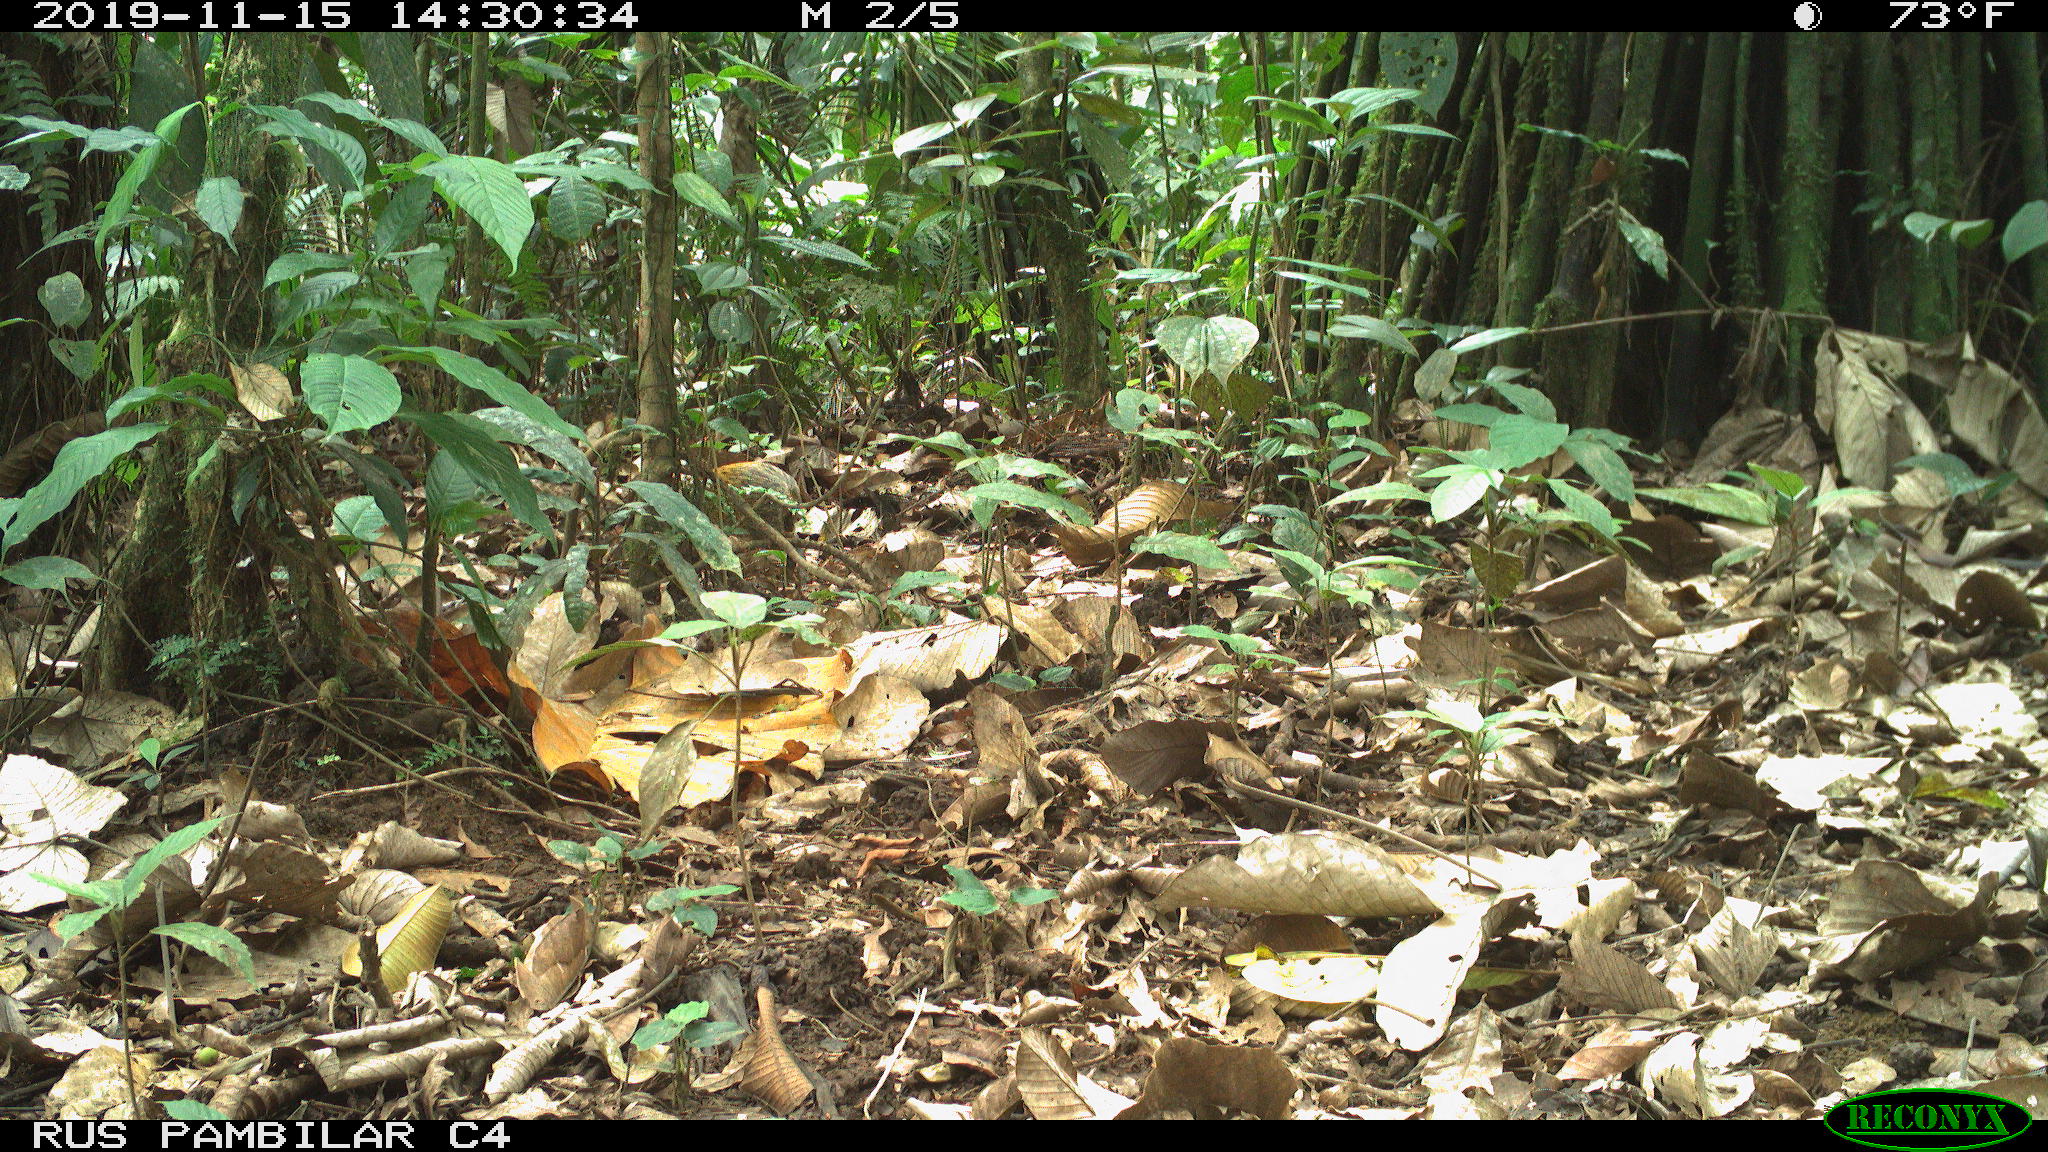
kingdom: Animalia
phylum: Chordata
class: Mammalia
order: Rodentia
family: Dasyproctidae
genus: Dasyprocta
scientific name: Dasyprocta punctata
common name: Central american agouti
